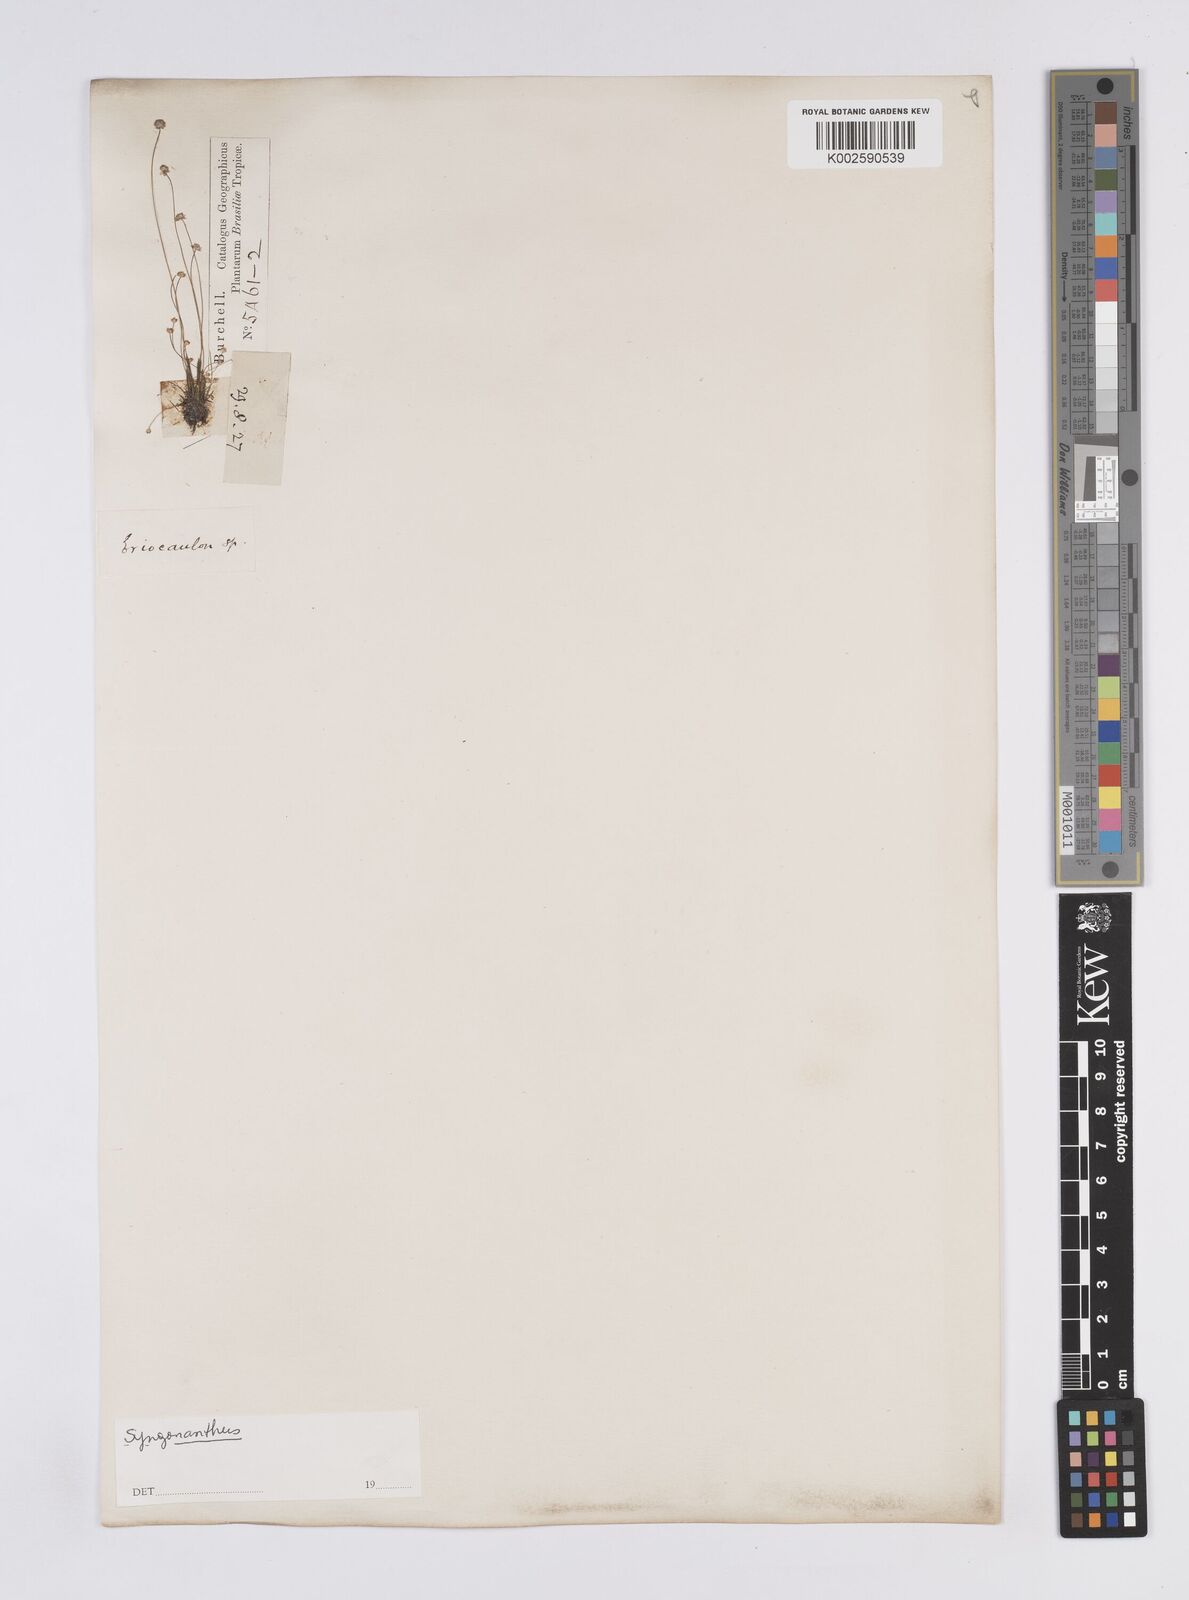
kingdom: Plantae
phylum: Tracheophyta
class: Liliopsida
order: Poales
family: Eriocaulaceae
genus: Syngonanthus
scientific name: Syngonanthus
